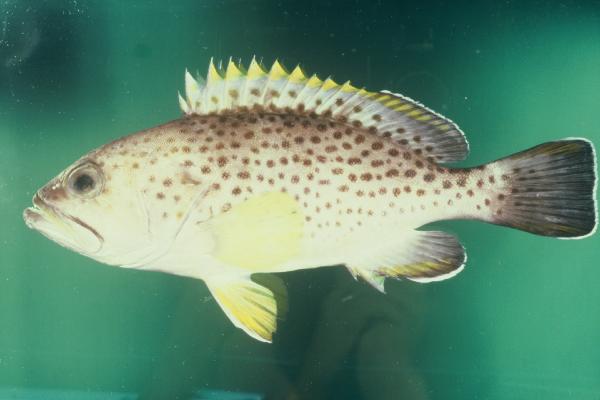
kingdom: Animalia
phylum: Chordata
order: Perciformes
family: Serranidae
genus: Epinephelus
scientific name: Epinephelus albomarginatus
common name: Captain fine
